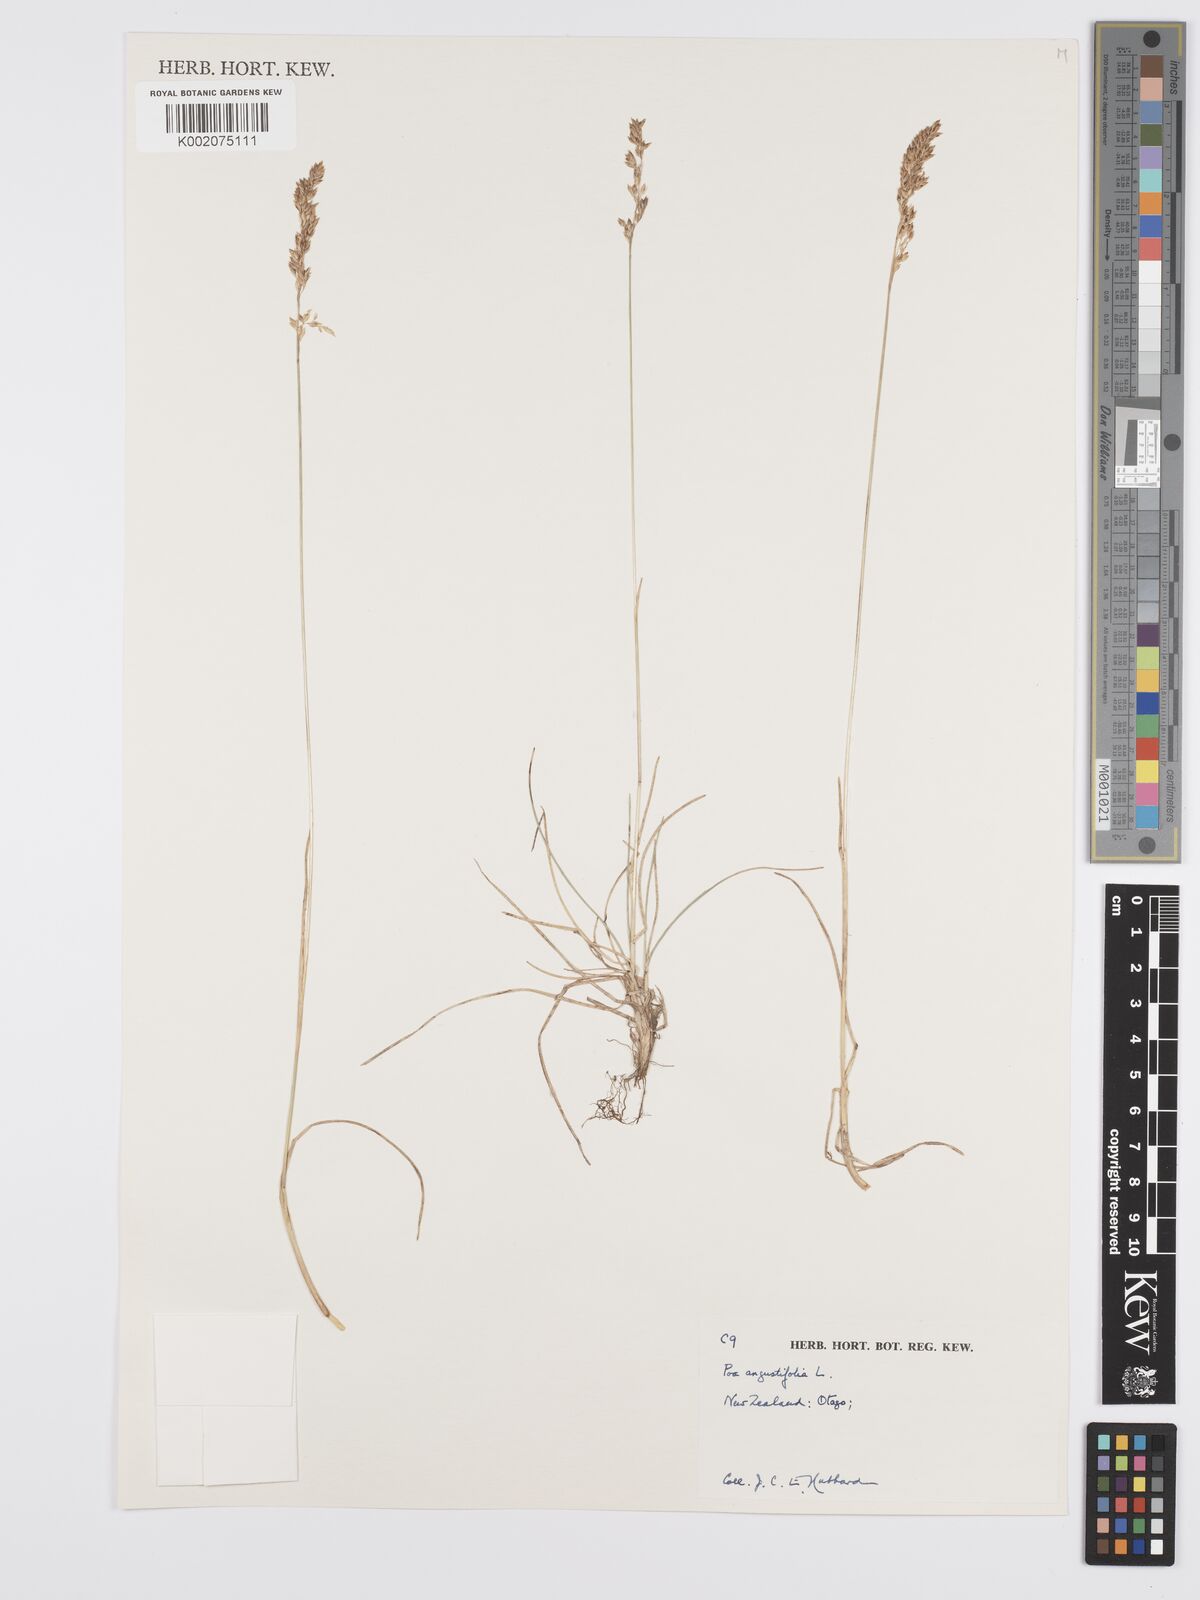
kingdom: Plantae
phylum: Tracheophyta
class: Liliopsida
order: Poales
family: Poaceae
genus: Poa
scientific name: Poa angustifolia
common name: Narrow-leaved meadow-grass
